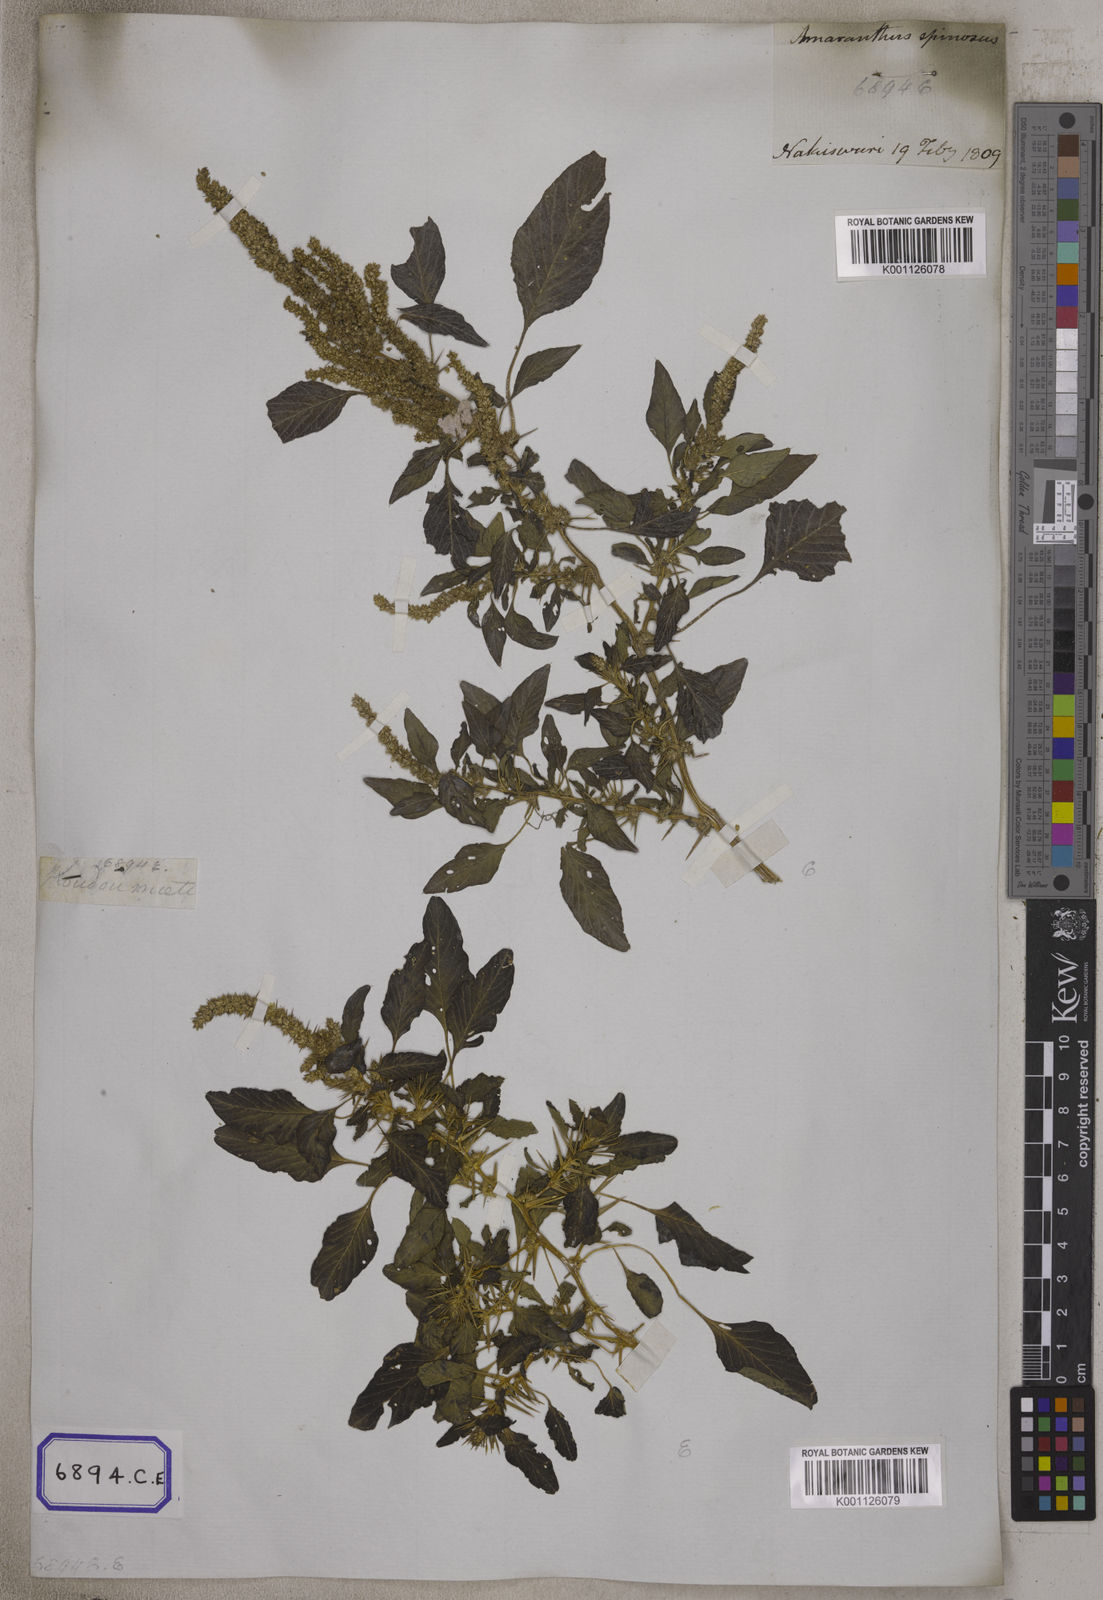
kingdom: Plantae
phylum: Tracheophyta
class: Magnoliopsida
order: Caryophyllales
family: Amaranthaceae
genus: Amaranthus
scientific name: Amaranthus spinosus
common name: Spiny amaranth
